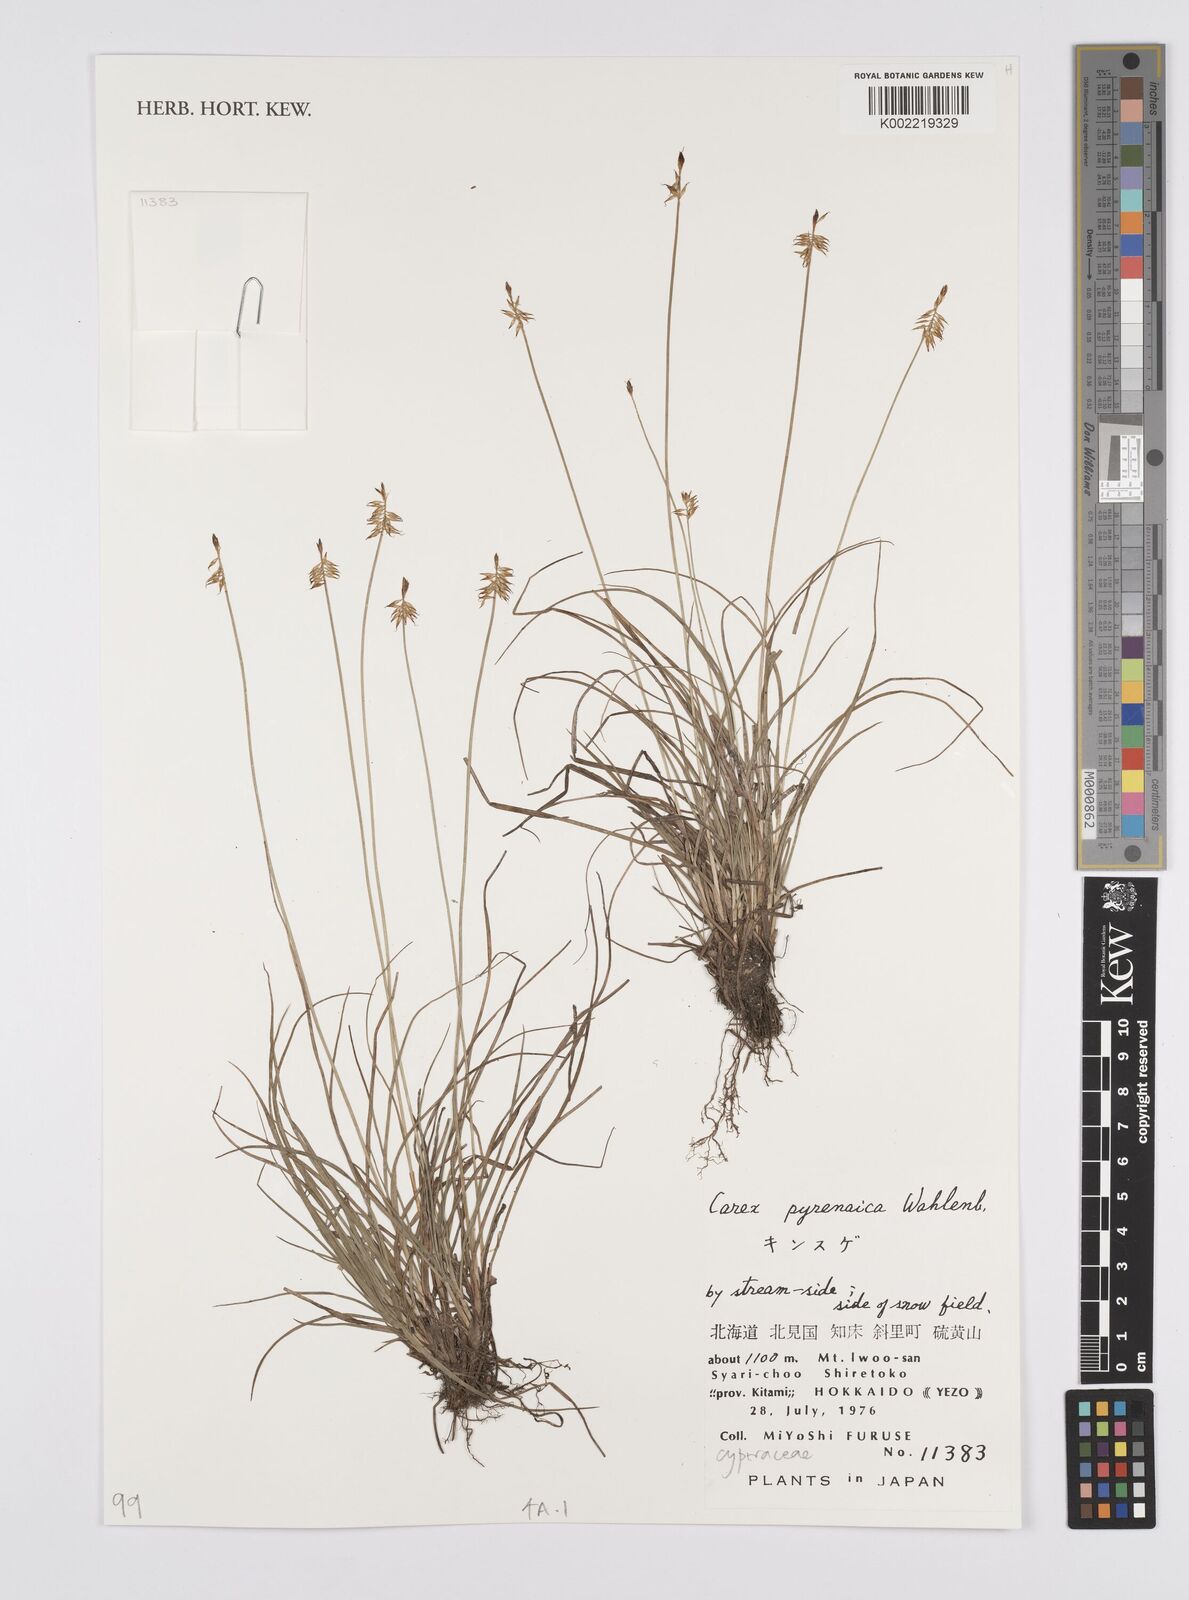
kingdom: Plantae
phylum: Tracheophyta
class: Liliopsida
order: Poales
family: Cyperaceae
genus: Carex
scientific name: Carex pyrenaica
